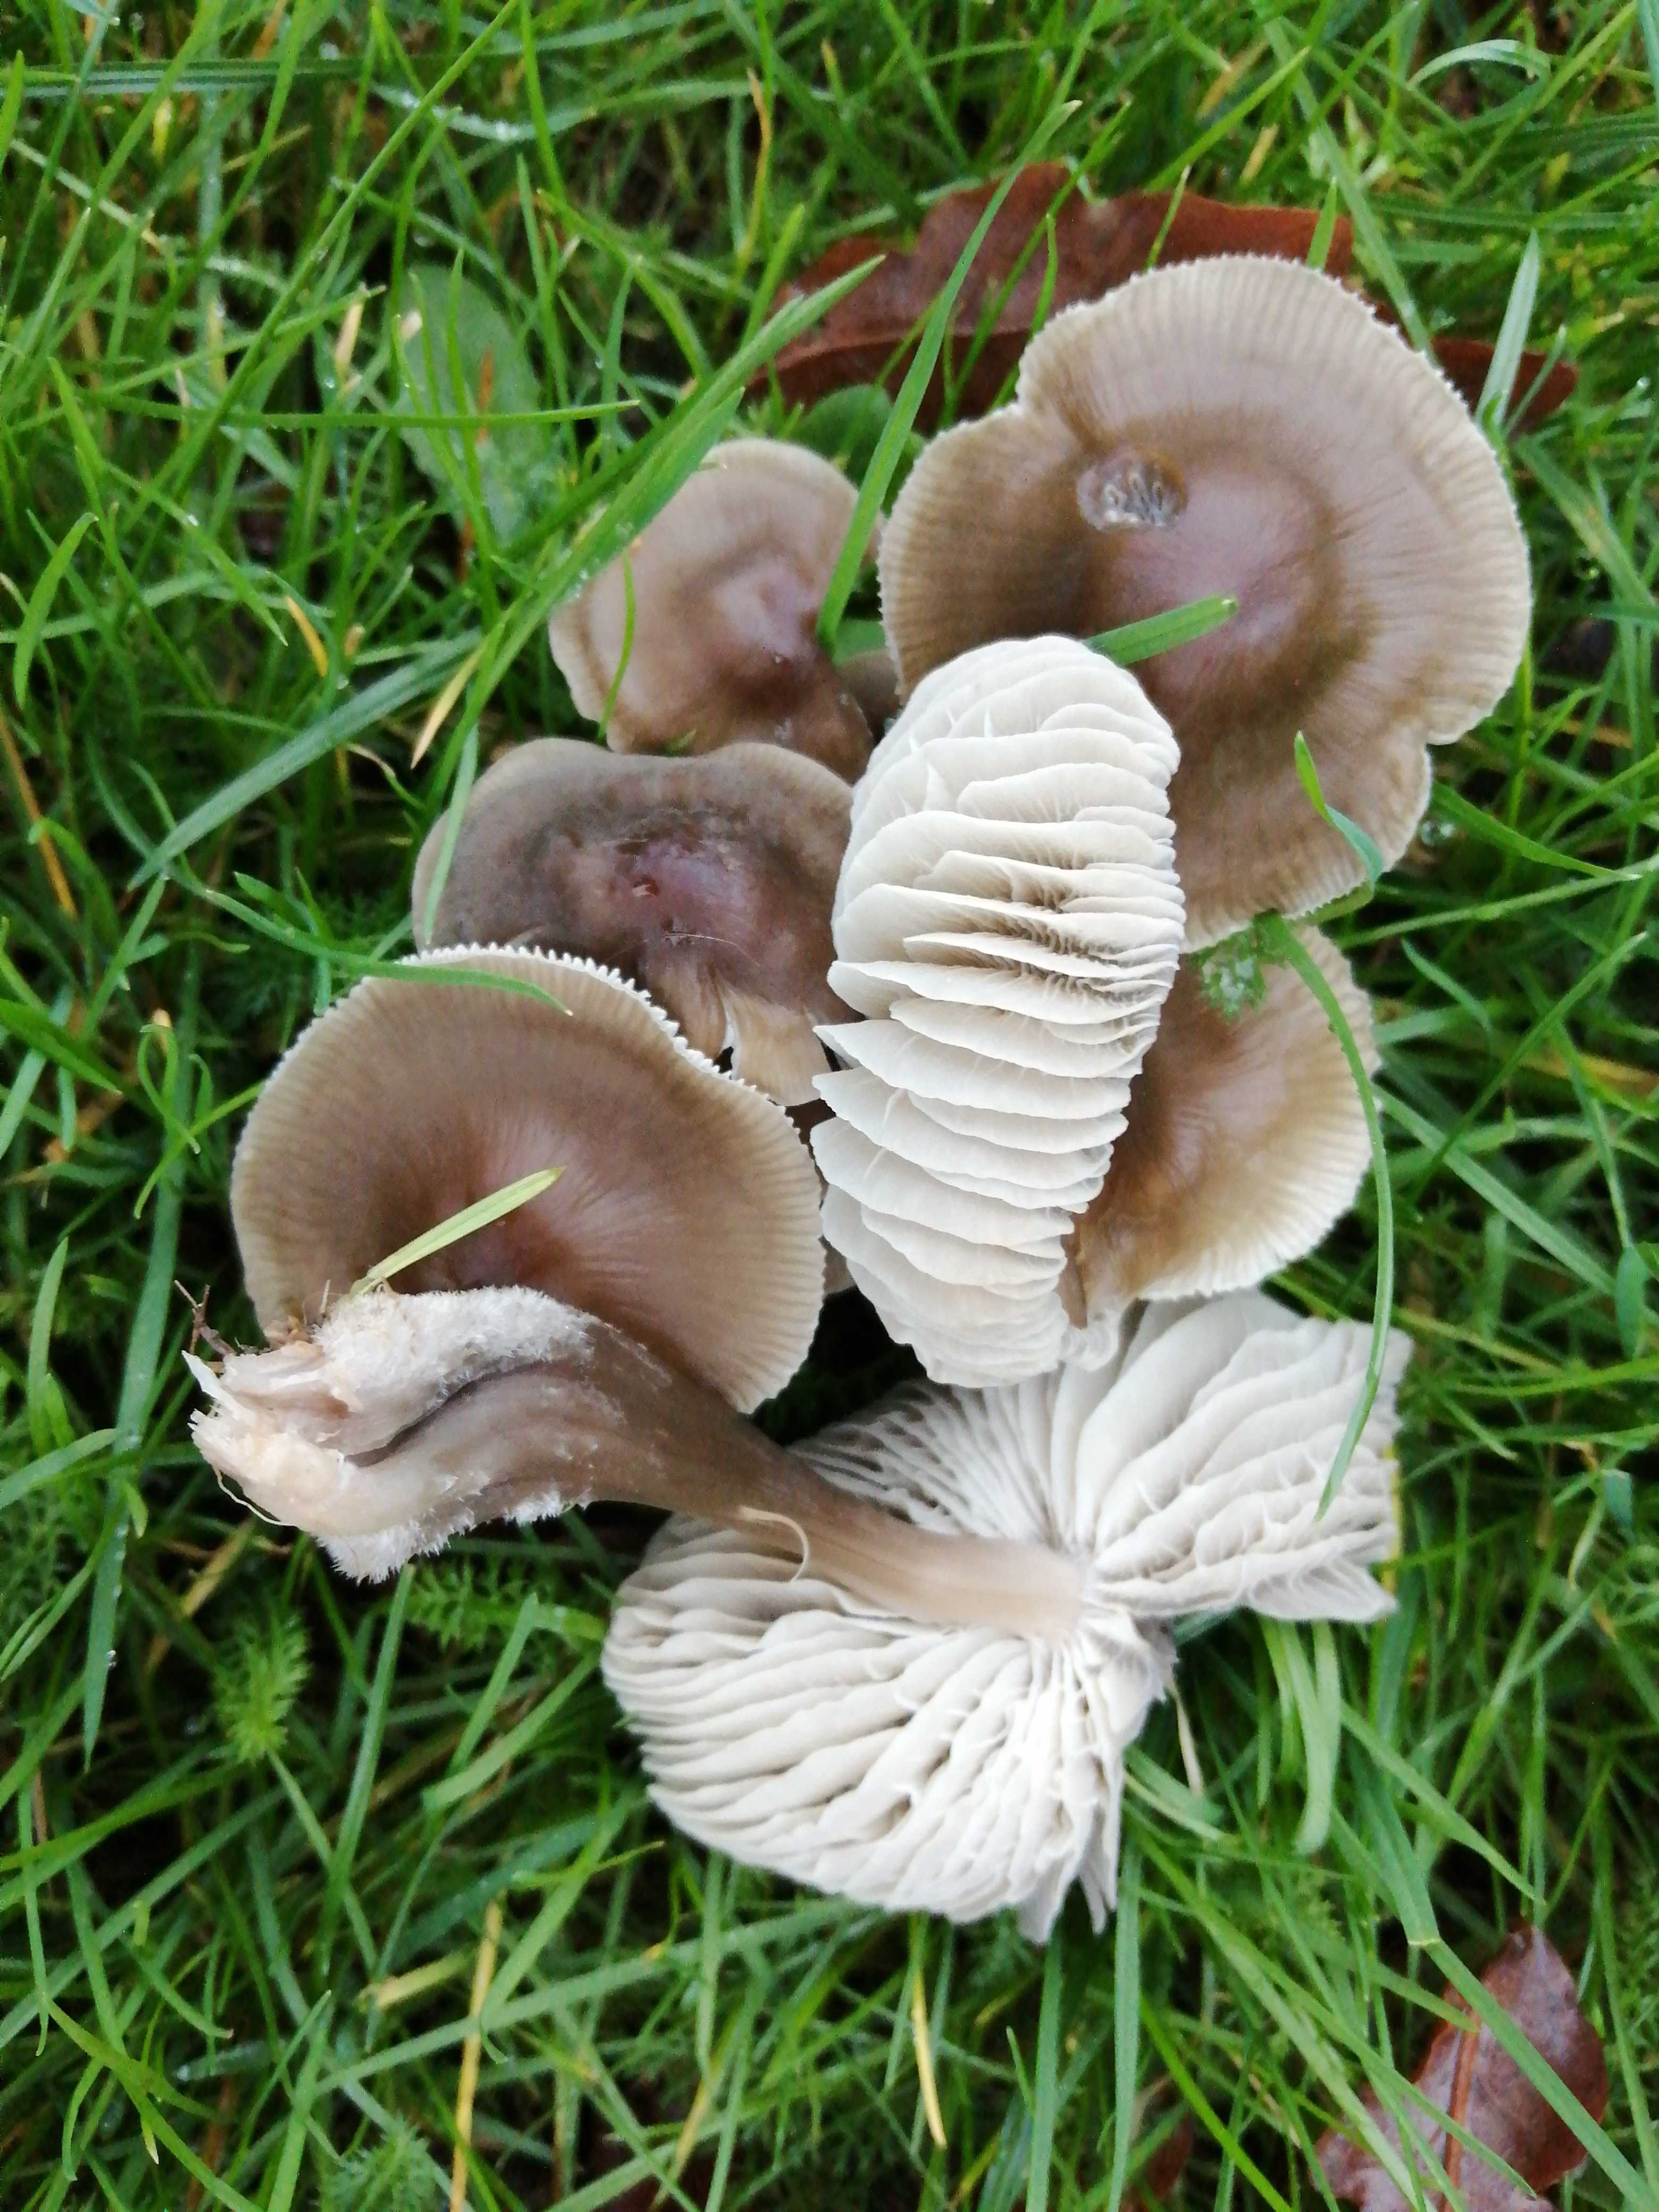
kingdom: Fungi
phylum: Basidiomycota
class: Agaricomycetes
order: Agaricales
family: Mycenaceae
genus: Mycena
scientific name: Mycena
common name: huesvamp
